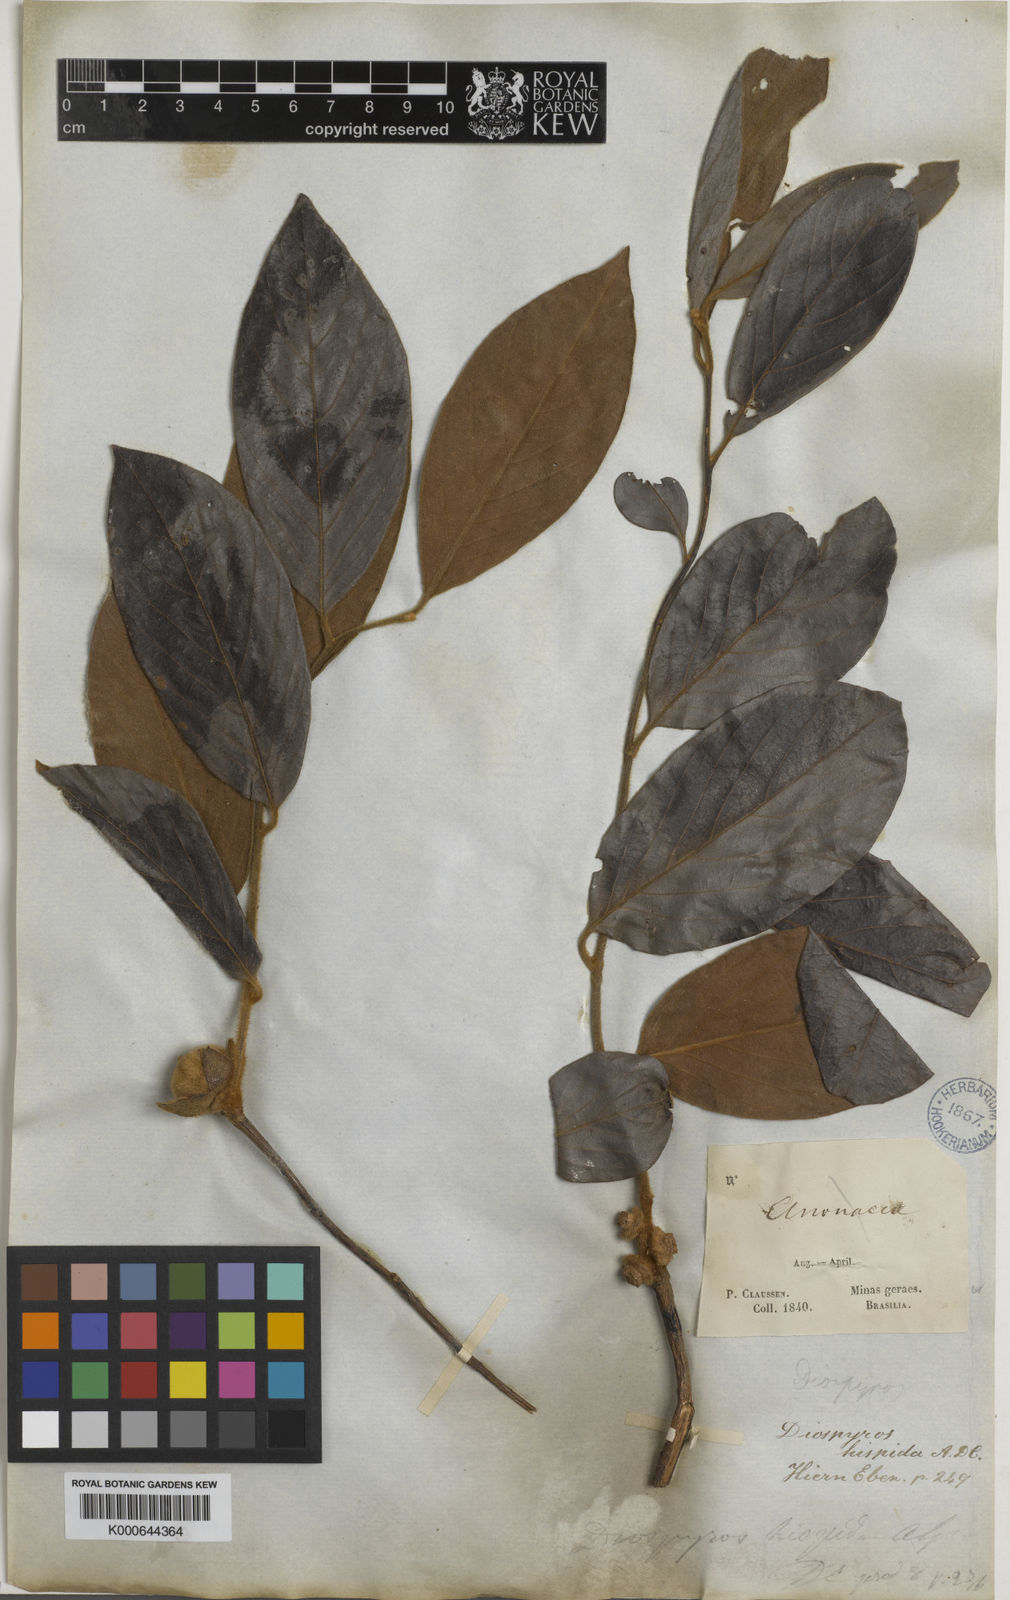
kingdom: Plantae
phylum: Tracheophyta
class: Magnoliopsida
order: Ericales
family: Ebenaceae
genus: Diospyros
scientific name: Diospyros lasiocalyx
